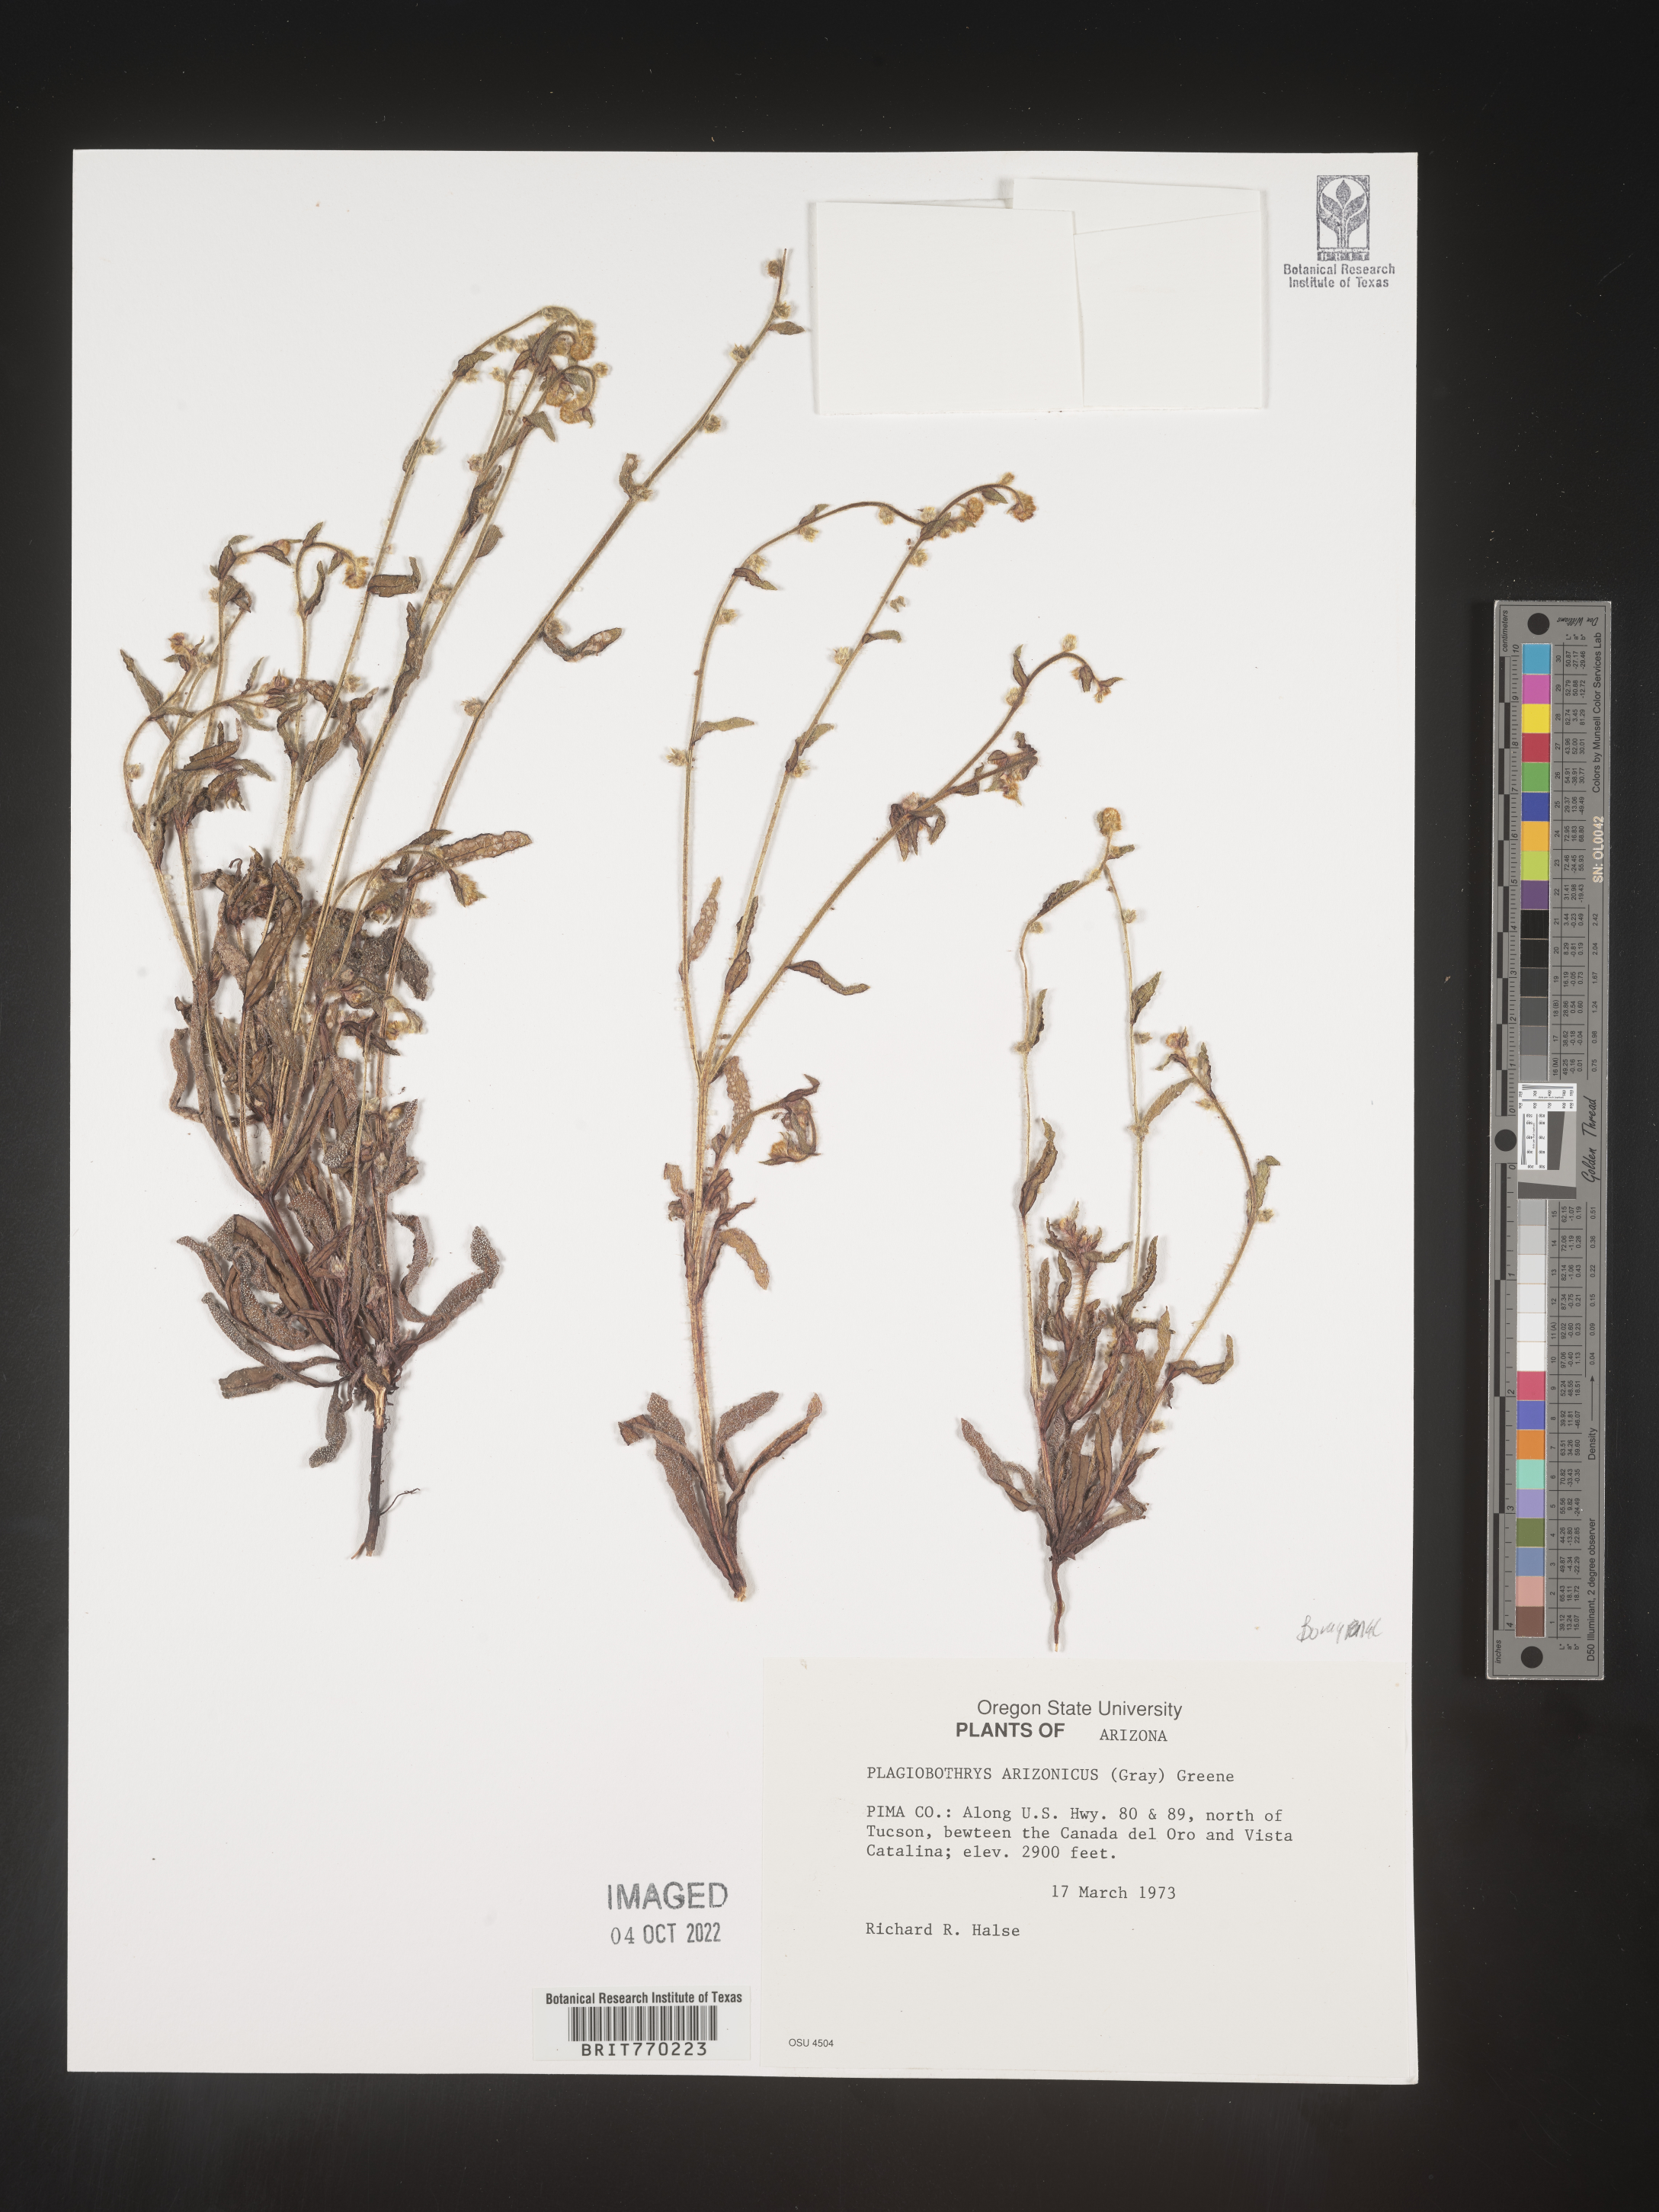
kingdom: Plantae
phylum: Tracheophyta
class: Magnoliopsida
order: Boraginales
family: Boraginaceae
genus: Plagiobothrys
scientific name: Plagiobothrys
